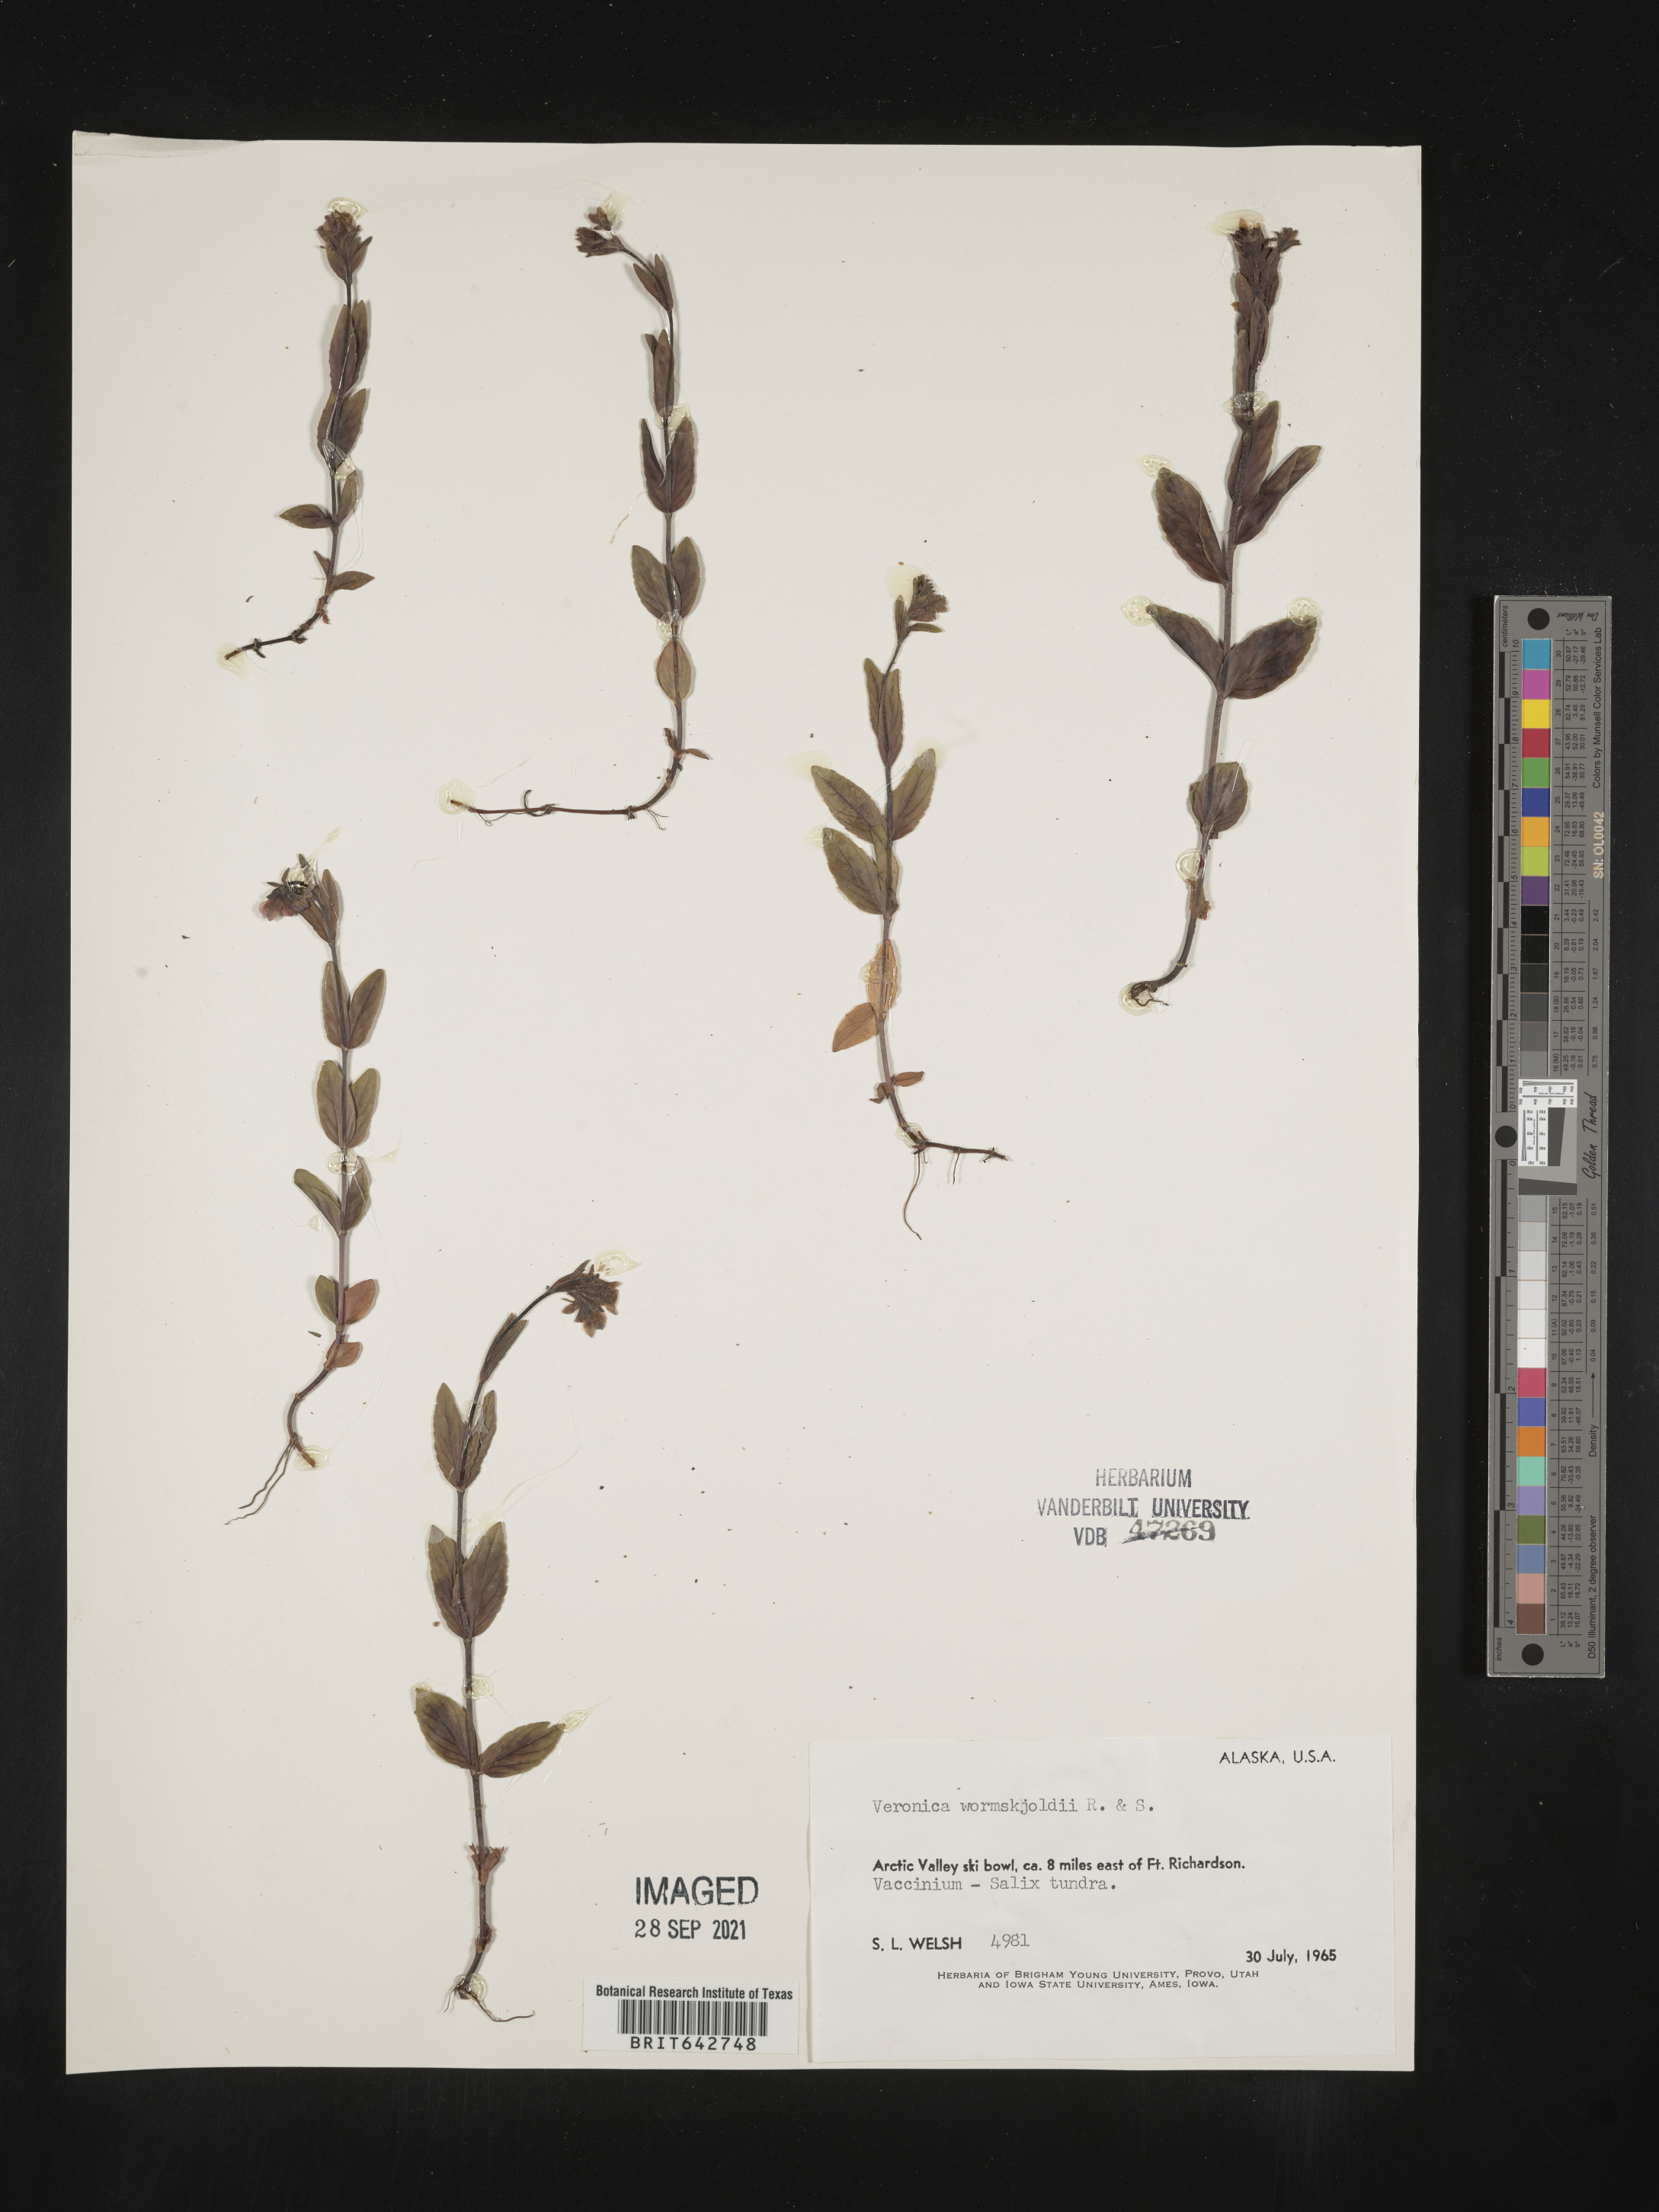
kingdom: Plantae
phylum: Tracheophyta
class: Magnoliopsida
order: Lamiales
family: Plantaginaceae
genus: Veronica
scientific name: Veronica
